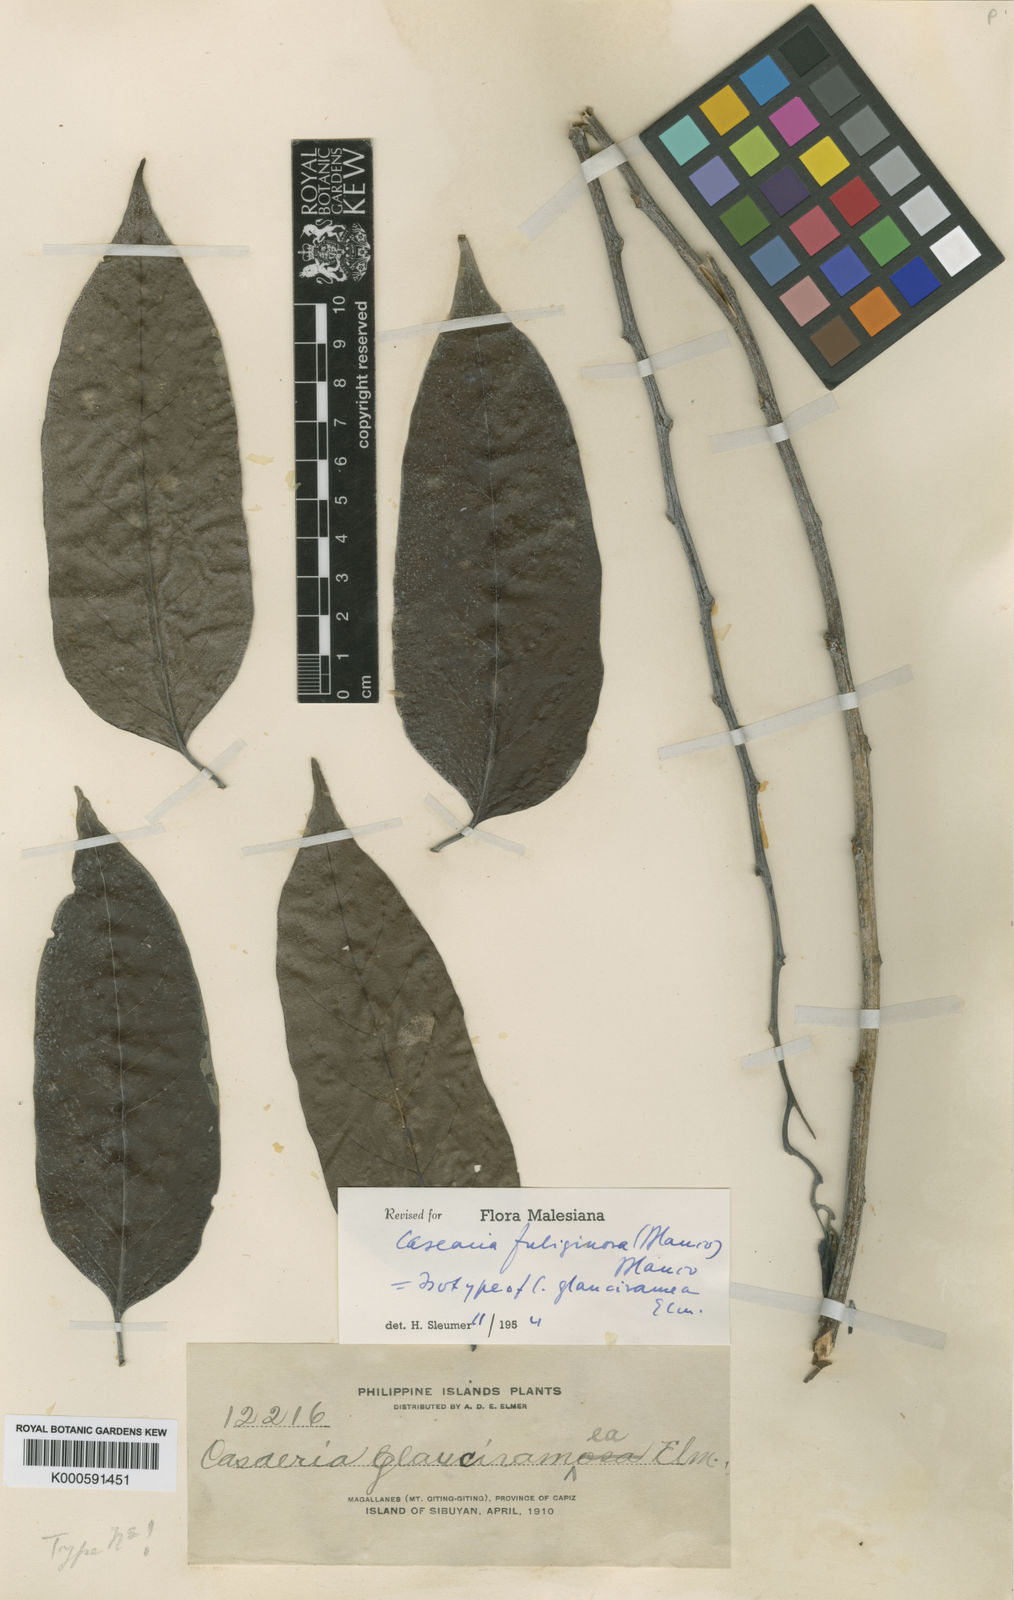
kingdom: Plantae
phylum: Tracheophyta
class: Magnoliopsida
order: Malpighiales
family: Salicaceae
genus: Casearia
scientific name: Casearia fuliginosa
